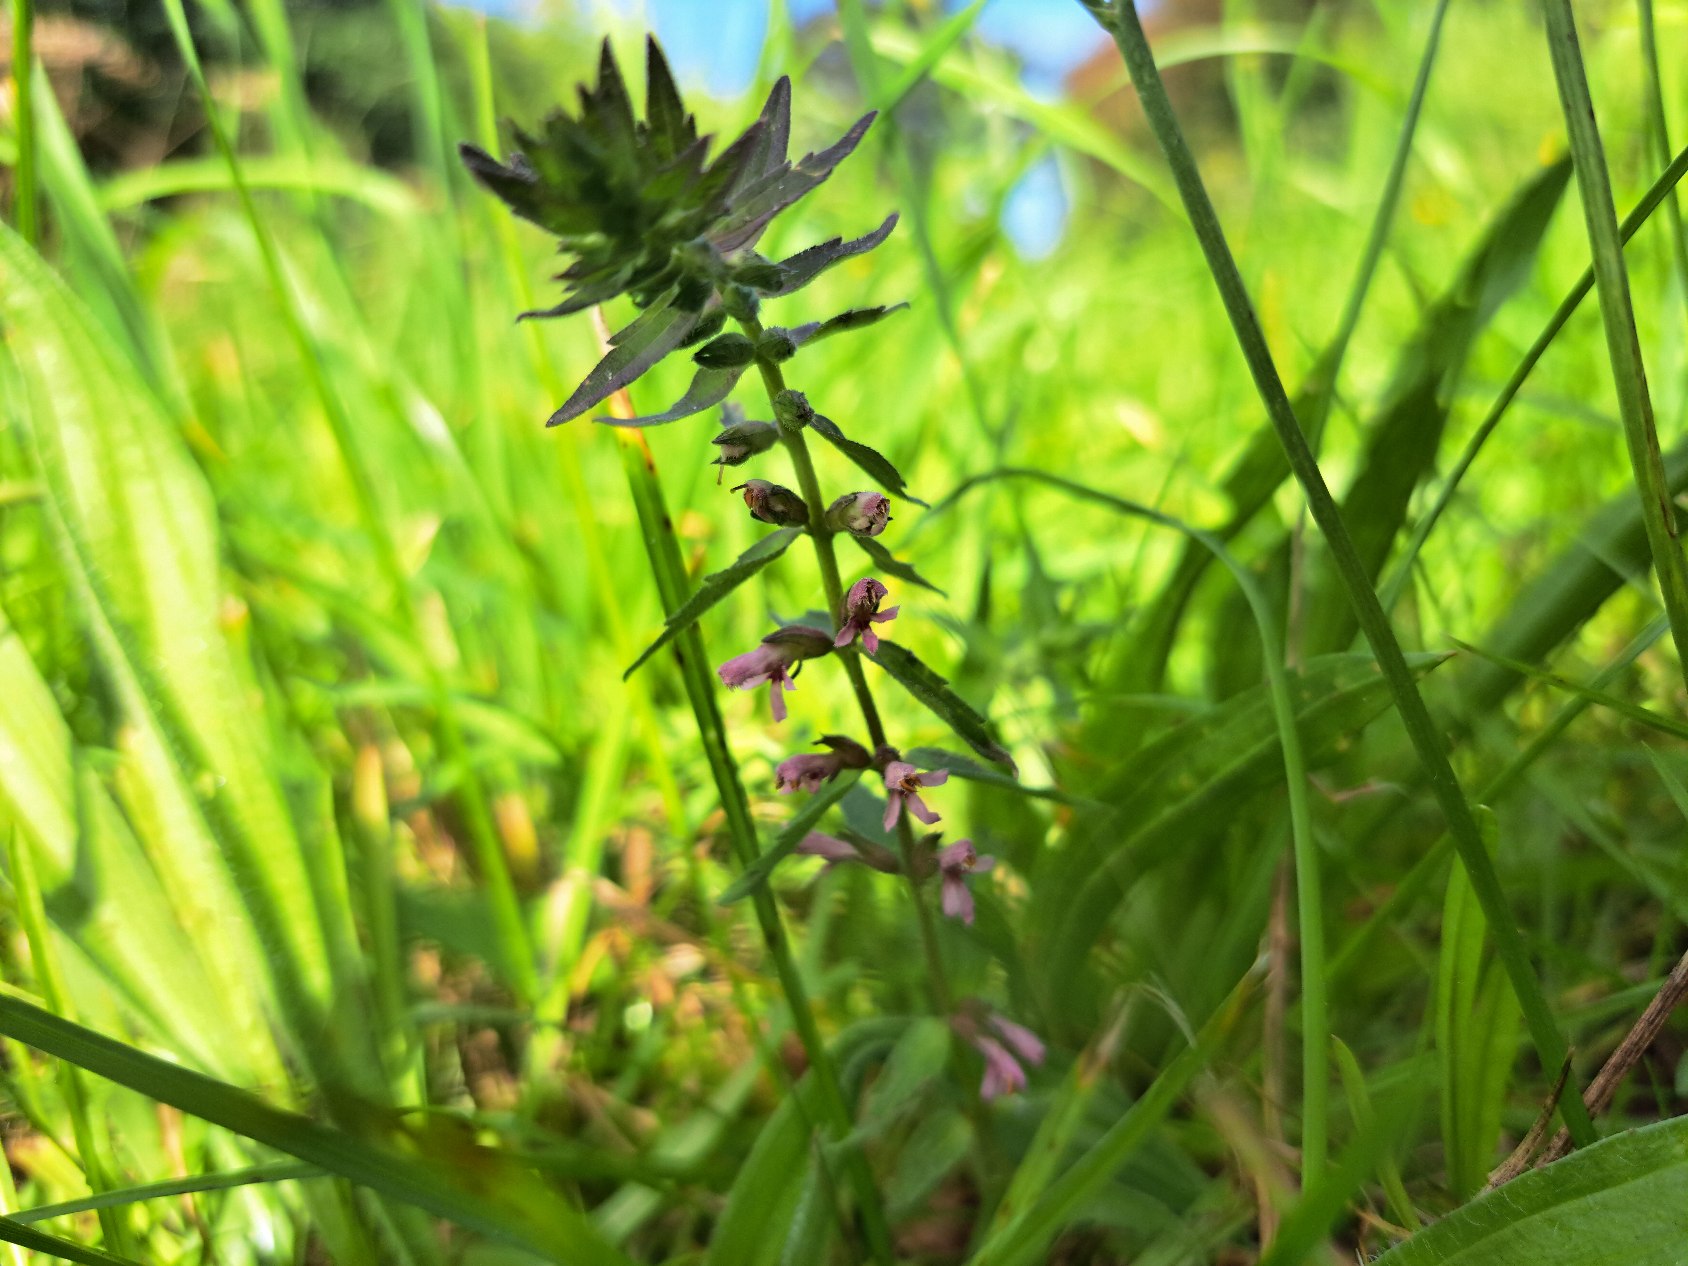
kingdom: Plantae
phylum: Tracheophyta
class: Magnoliopsida
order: Lamiales
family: Orobanchaceae
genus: Odontites
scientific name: Odontites vernus
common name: Mark-rødtop
